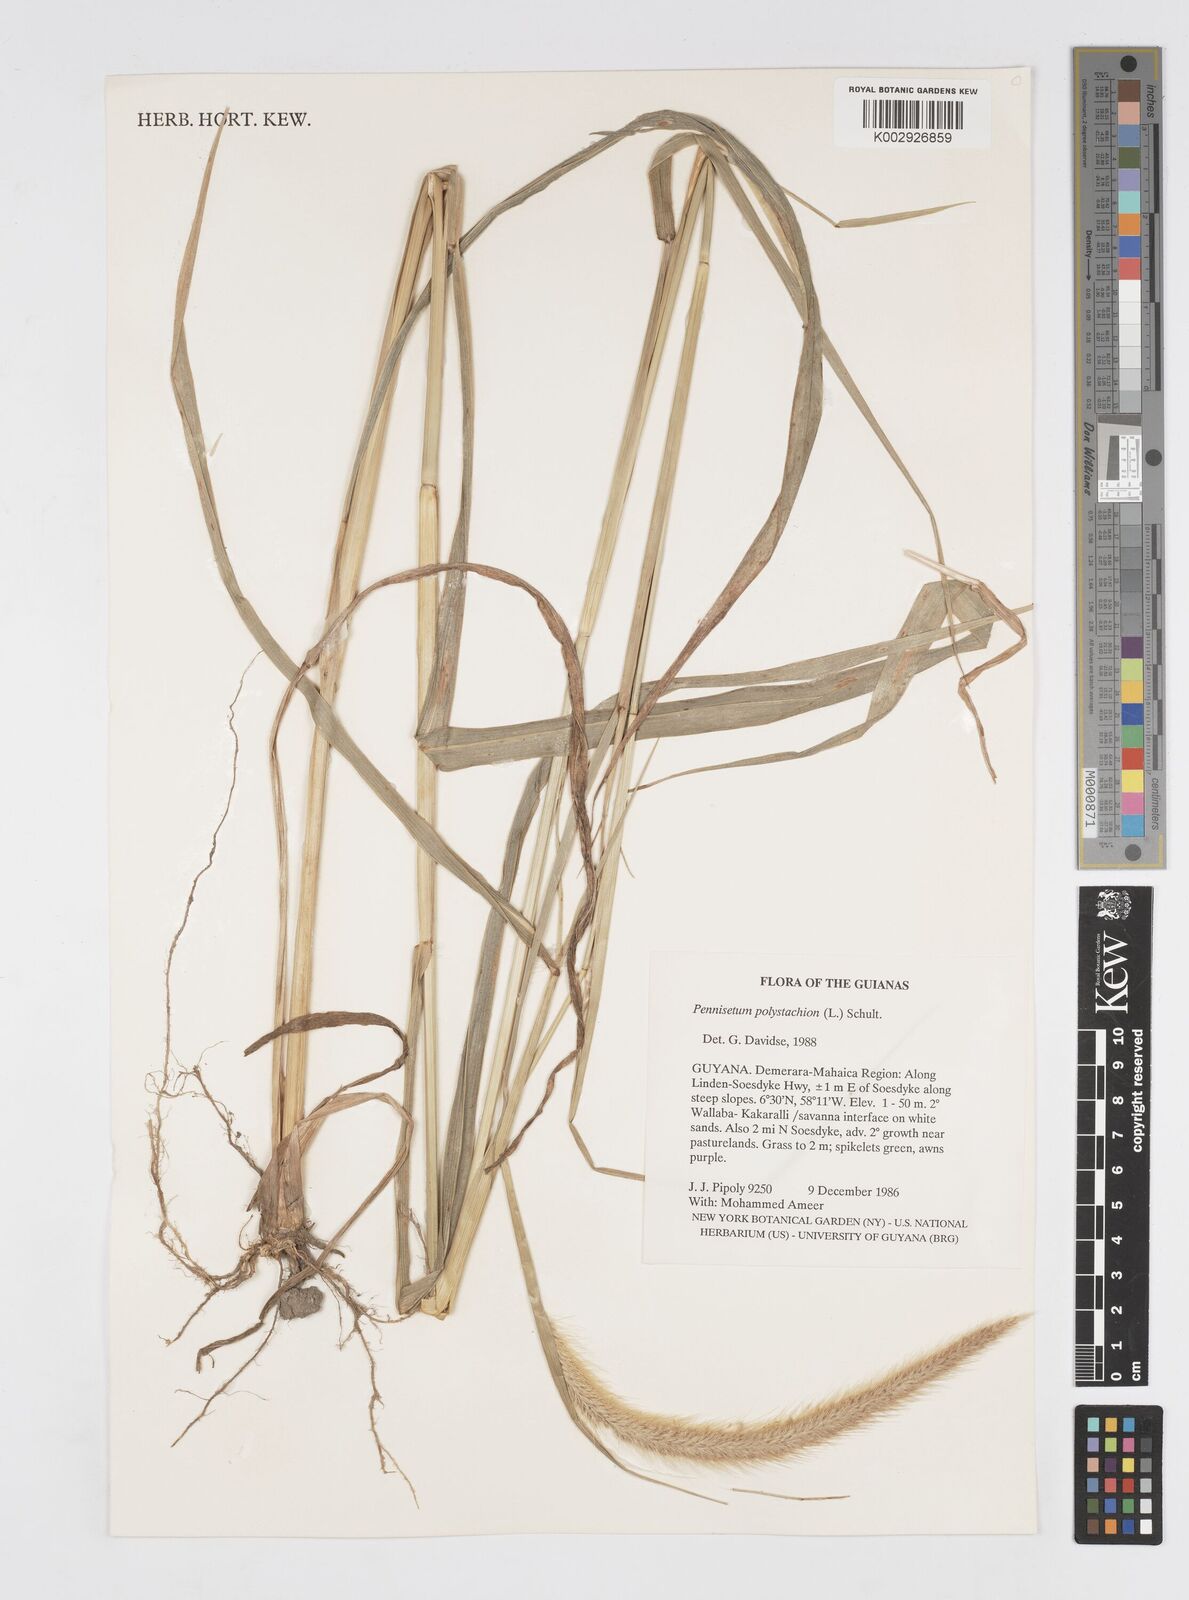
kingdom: Plantae
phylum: Tracheophyta
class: Liliopsida
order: Poales
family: Poaceae
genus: Cenchrus
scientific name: Cenchrus setosus
